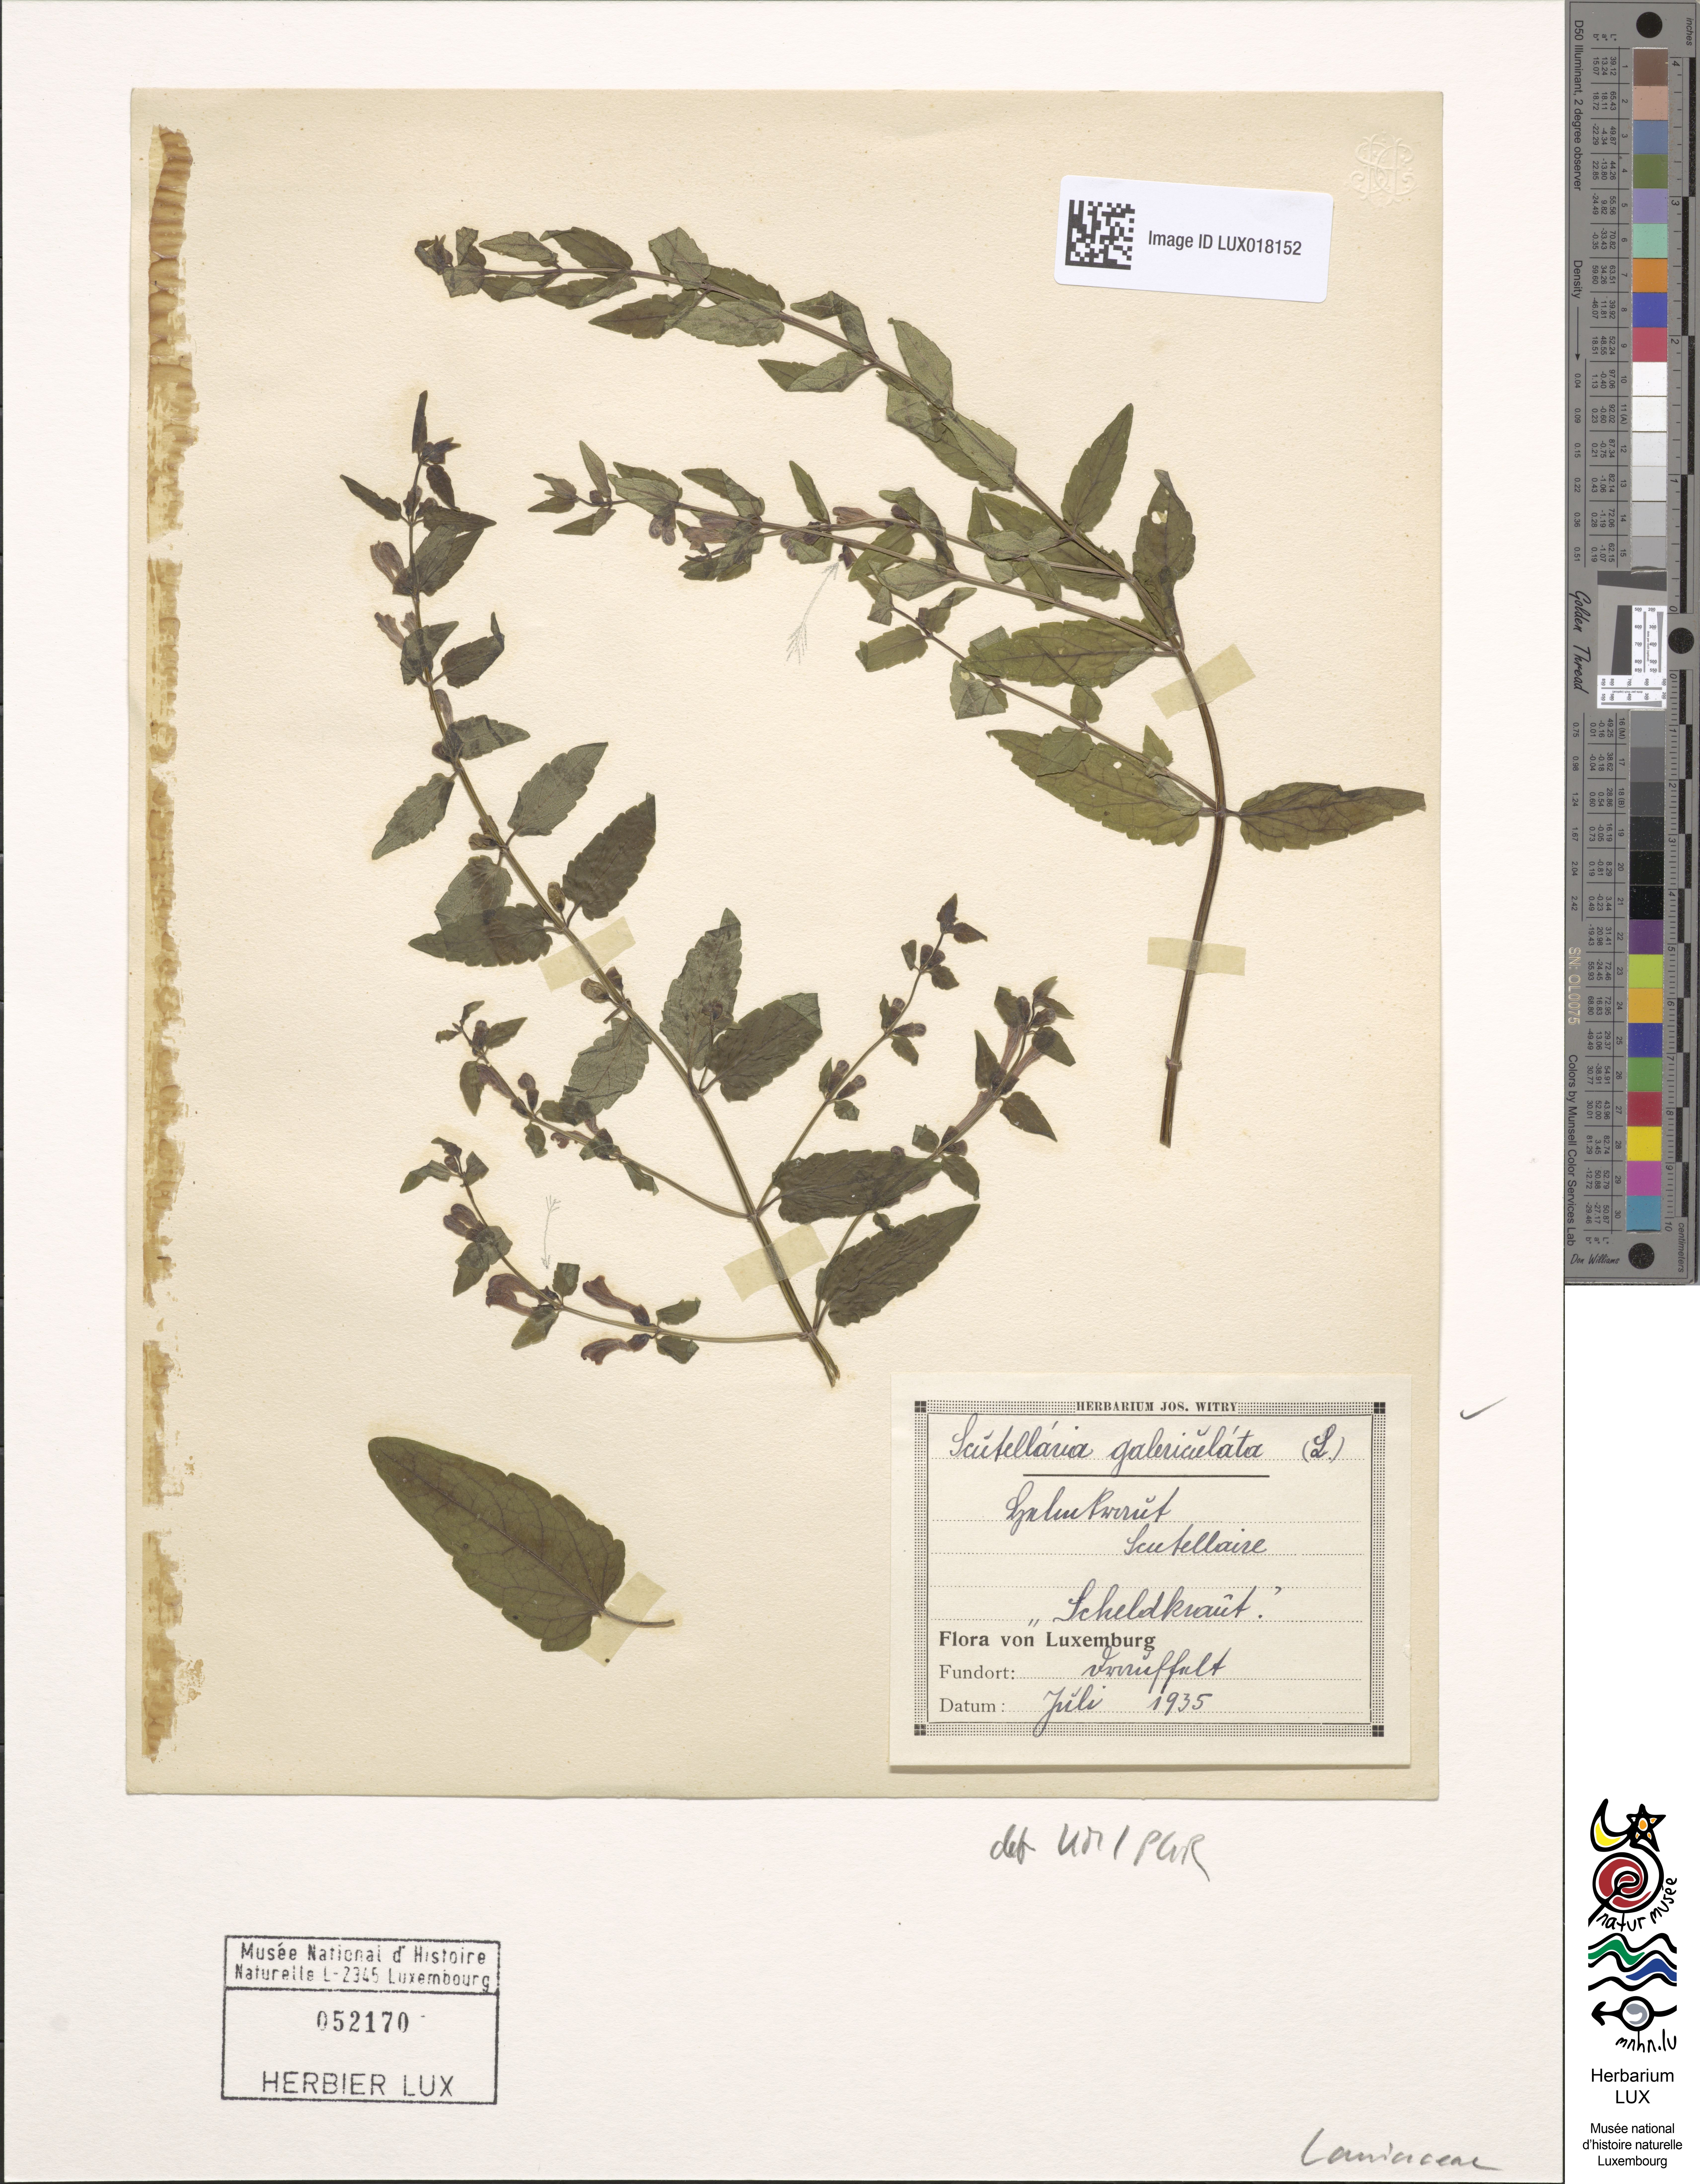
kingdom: Plantae
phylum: Tracheophyta
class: Magnoliopsida
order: Lamiales
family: Lamiaceae
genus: Scutellaria
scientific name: Scutellaria galericulata
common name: Skullcap
